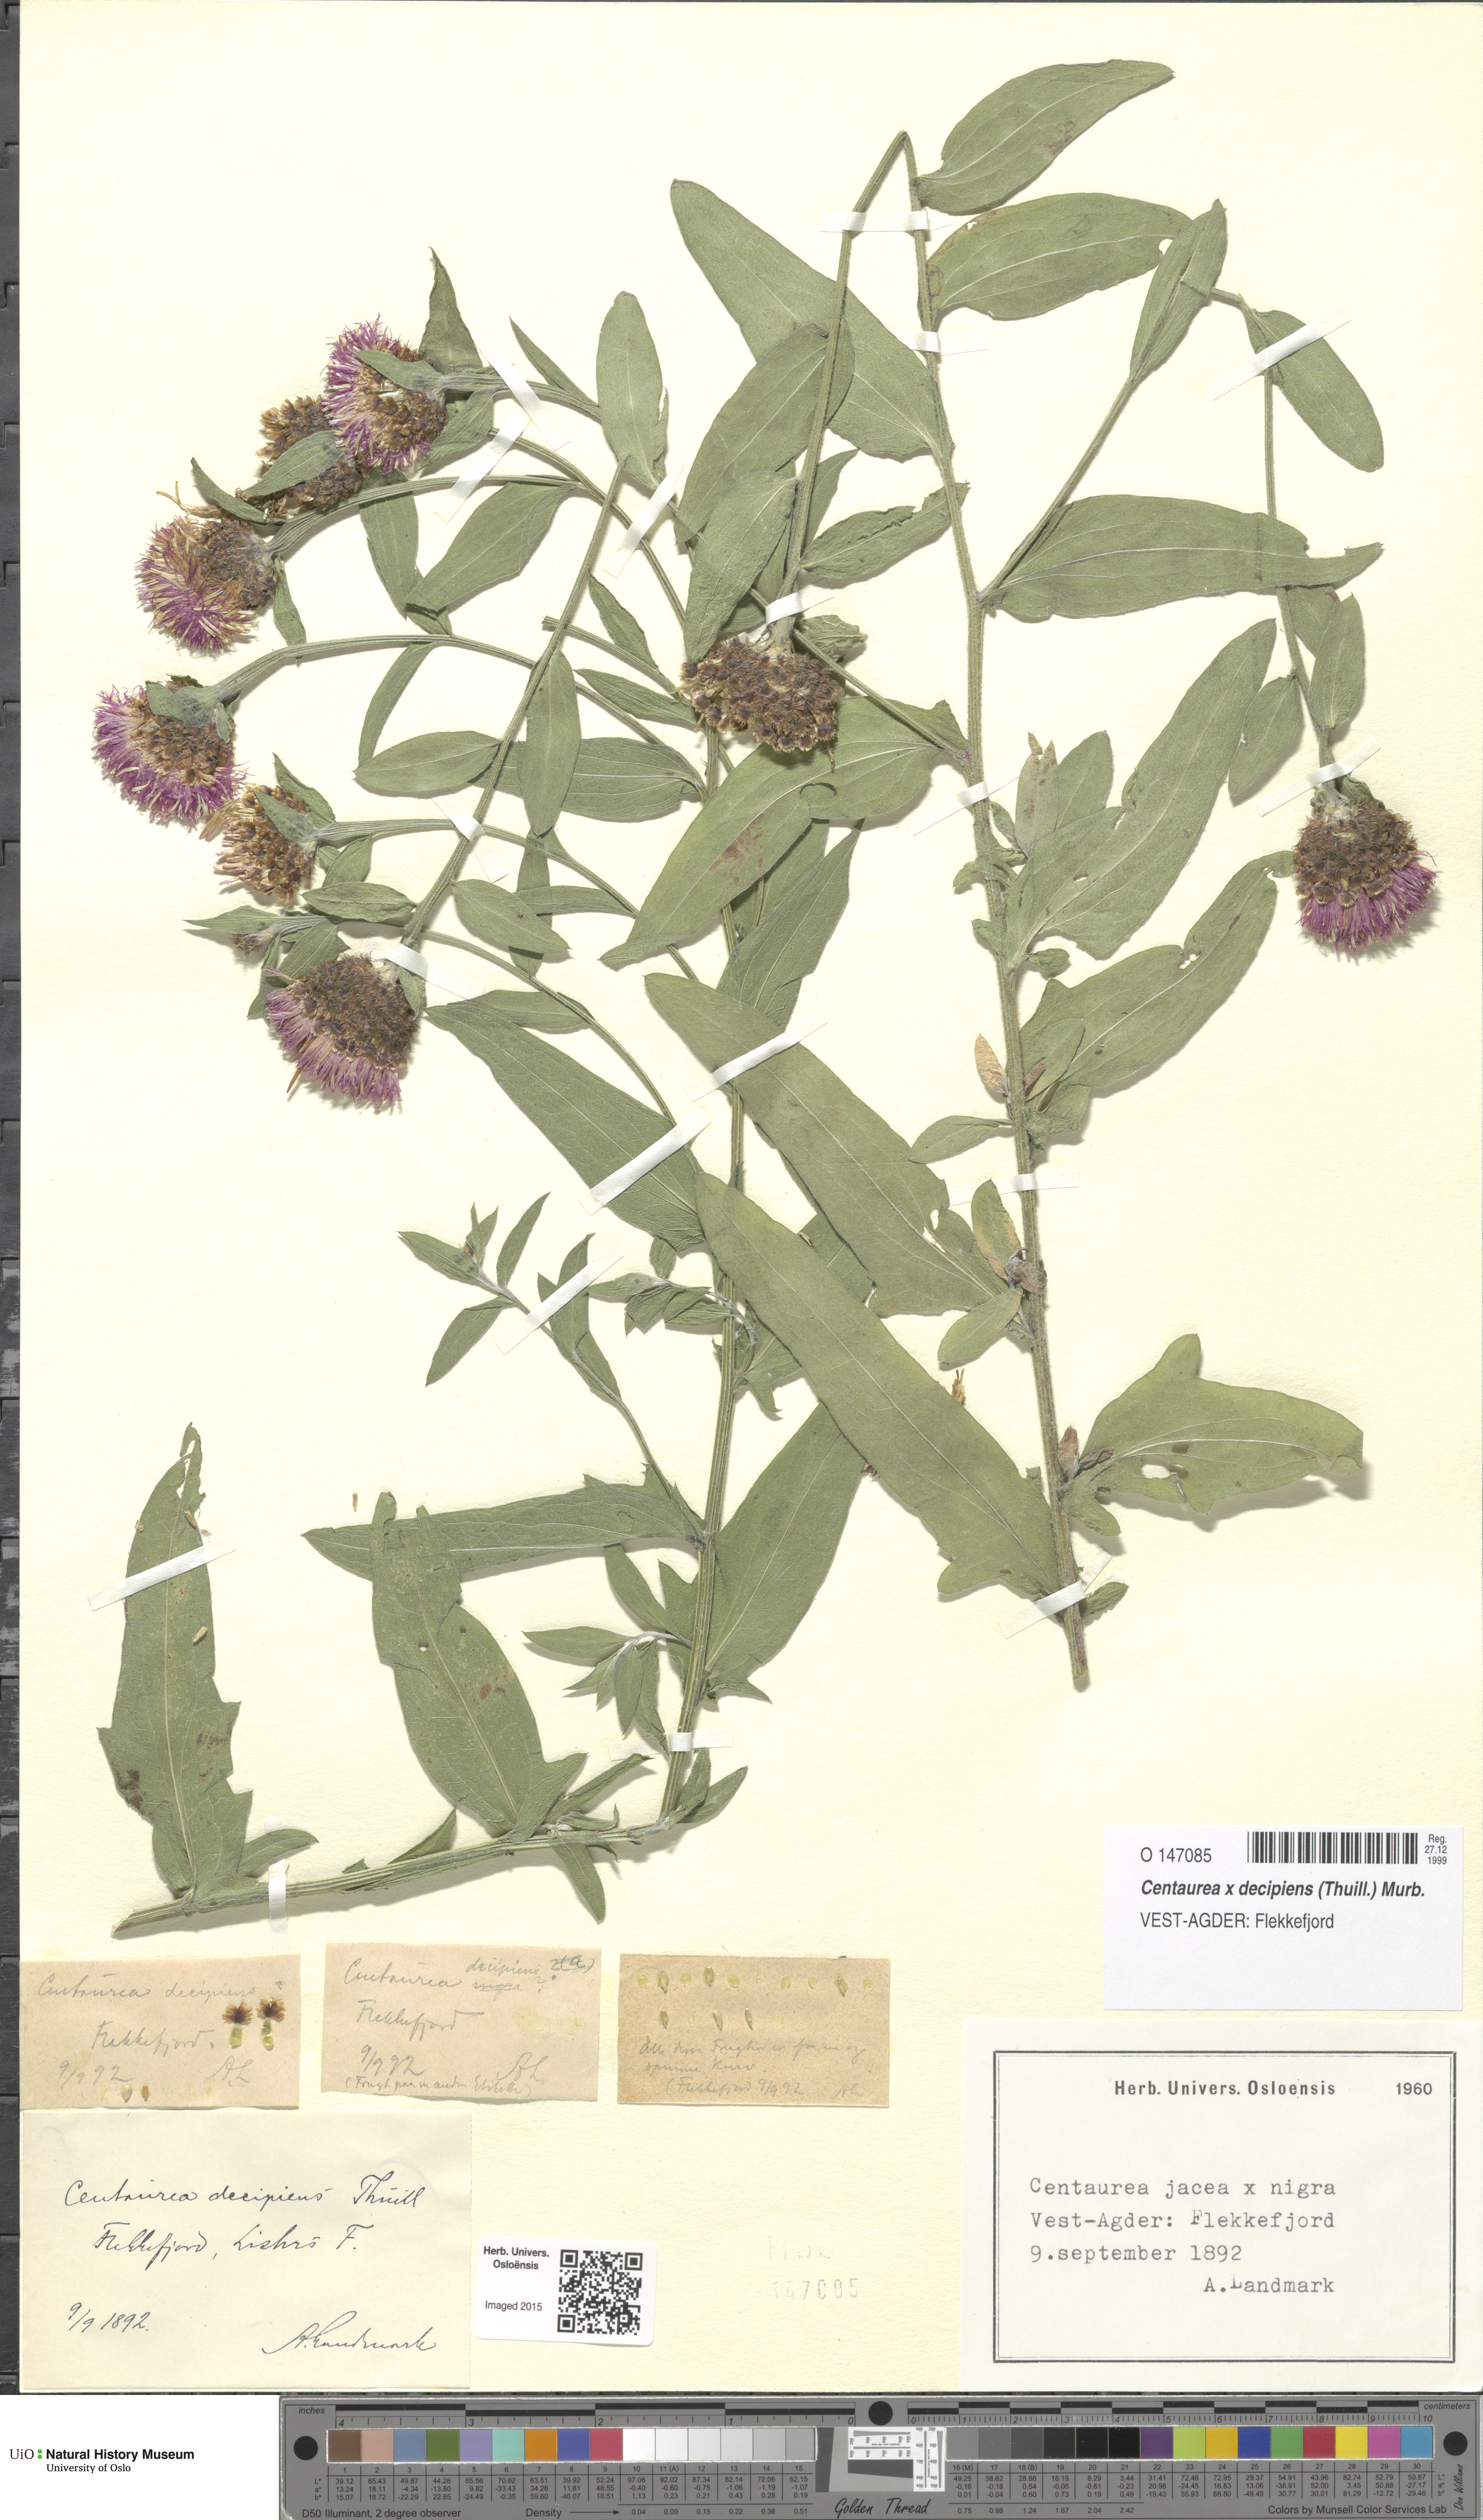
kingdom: Plantae
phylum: Tracheophyta
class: Magnoliopsida
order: Asterales
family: Asteraceae
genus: Centaurea
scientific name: Centaurea decipiens
